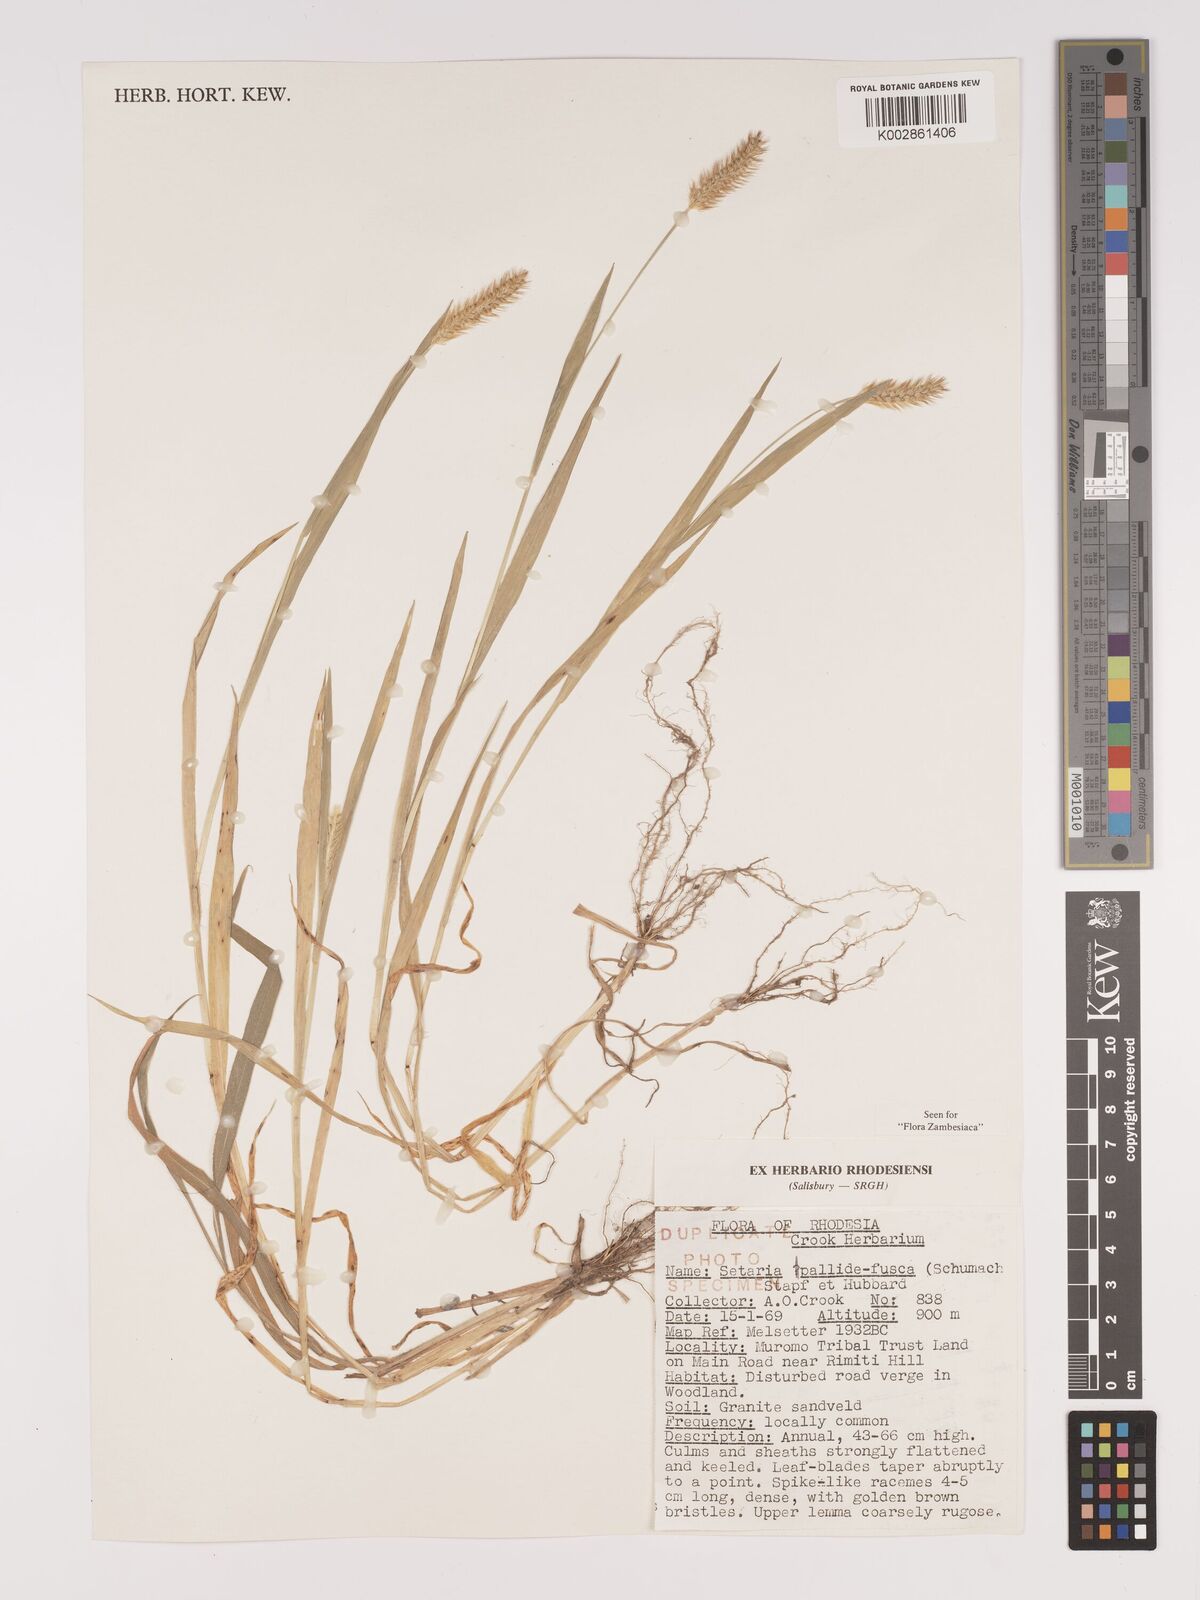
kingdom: Plantae
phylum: Tracheophyta
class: Liliopsida
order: Poales
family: Poaceae
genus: Setaria
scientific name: Setaria pumila
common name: Yellow bristle-grass
